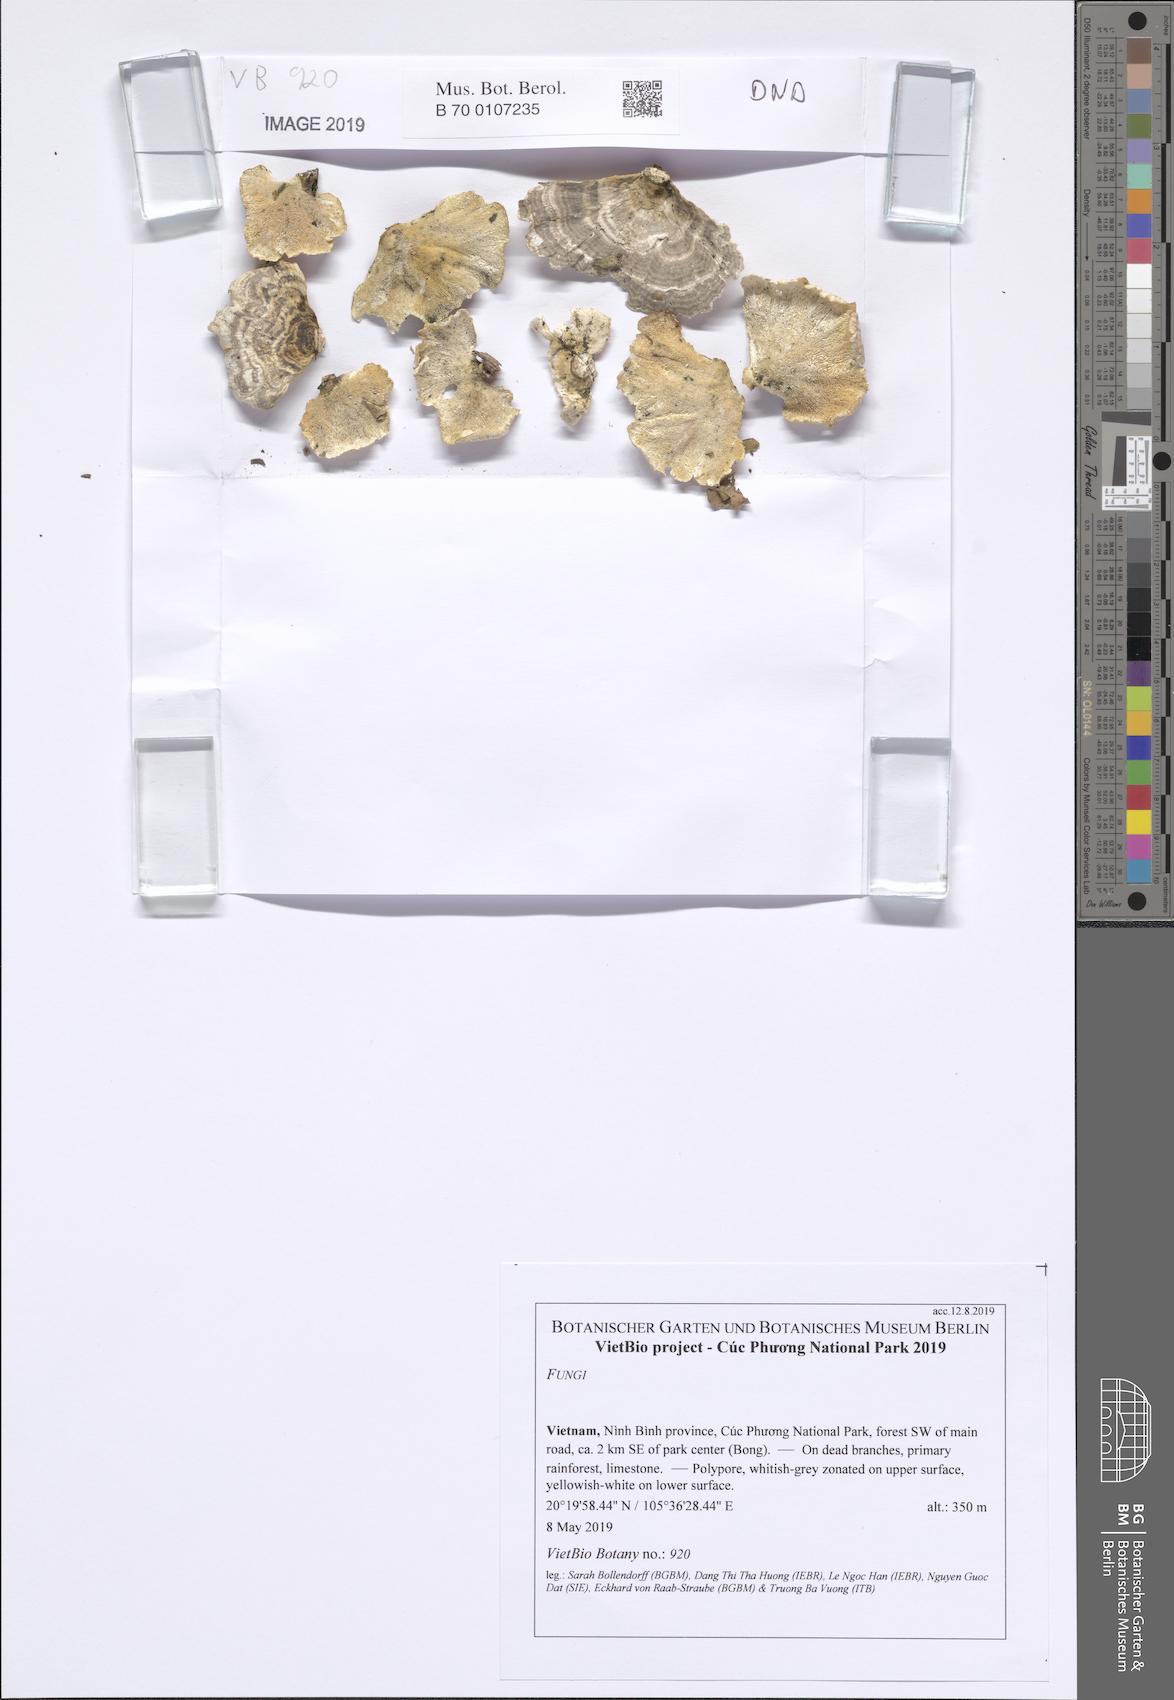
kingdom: Fungi
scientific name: Fungi
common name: Fungi
